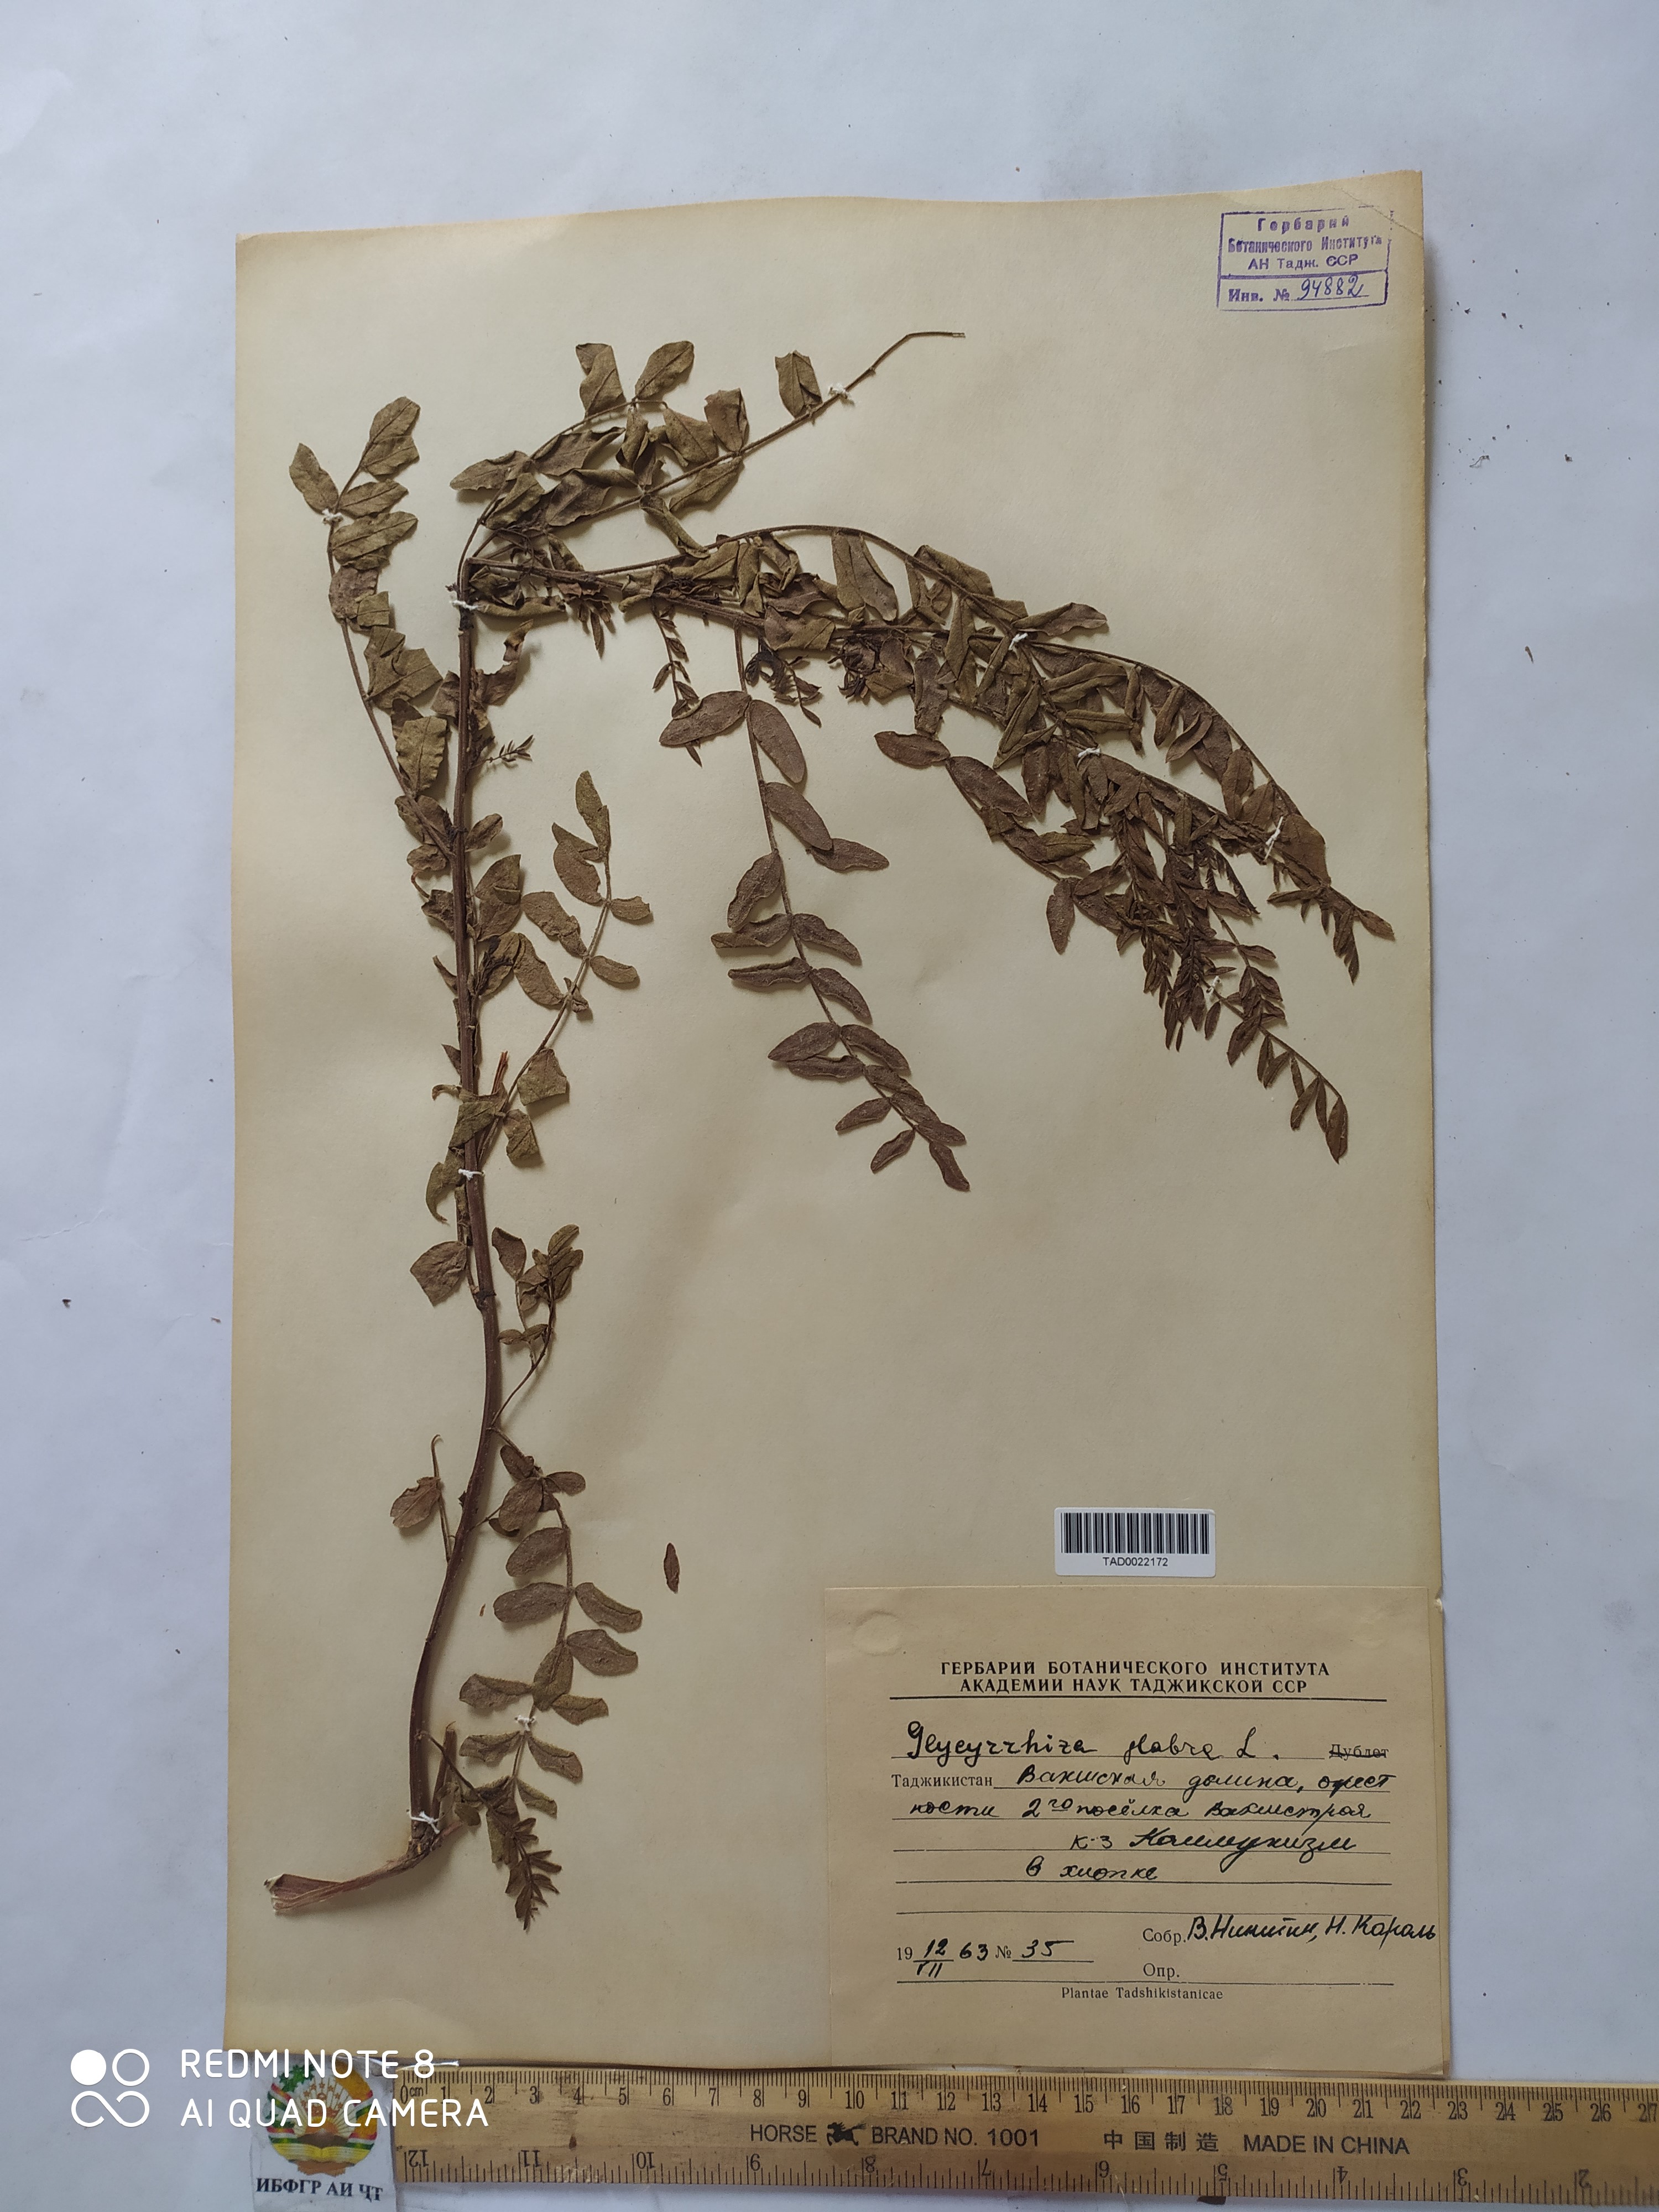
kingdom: Plantae
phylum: Tracheophyta
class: Magnoliopsida
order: Fabales
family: Fabaceae
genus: Glycyrrhiza
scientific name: Glycyrrhiza glabra
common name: Liquorice
